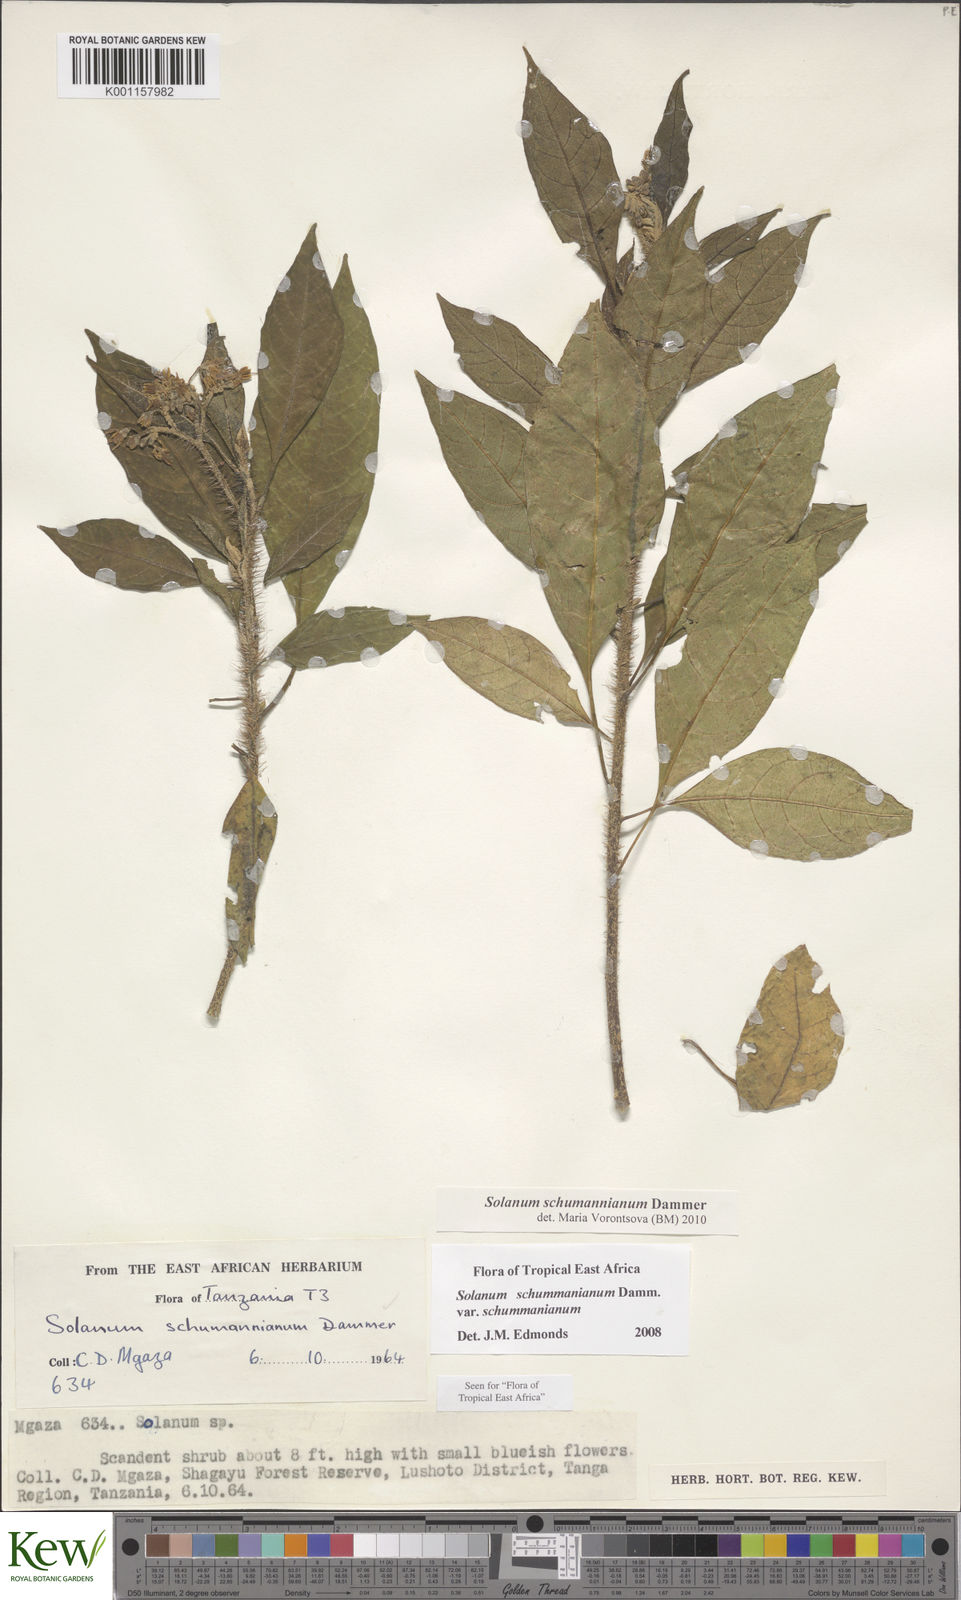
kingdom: Plantae
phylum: Tracheophyta
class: Magnoliopsida
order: Solanales
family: Solanaceae
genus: Solanum
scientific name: Solanum schumannianum
